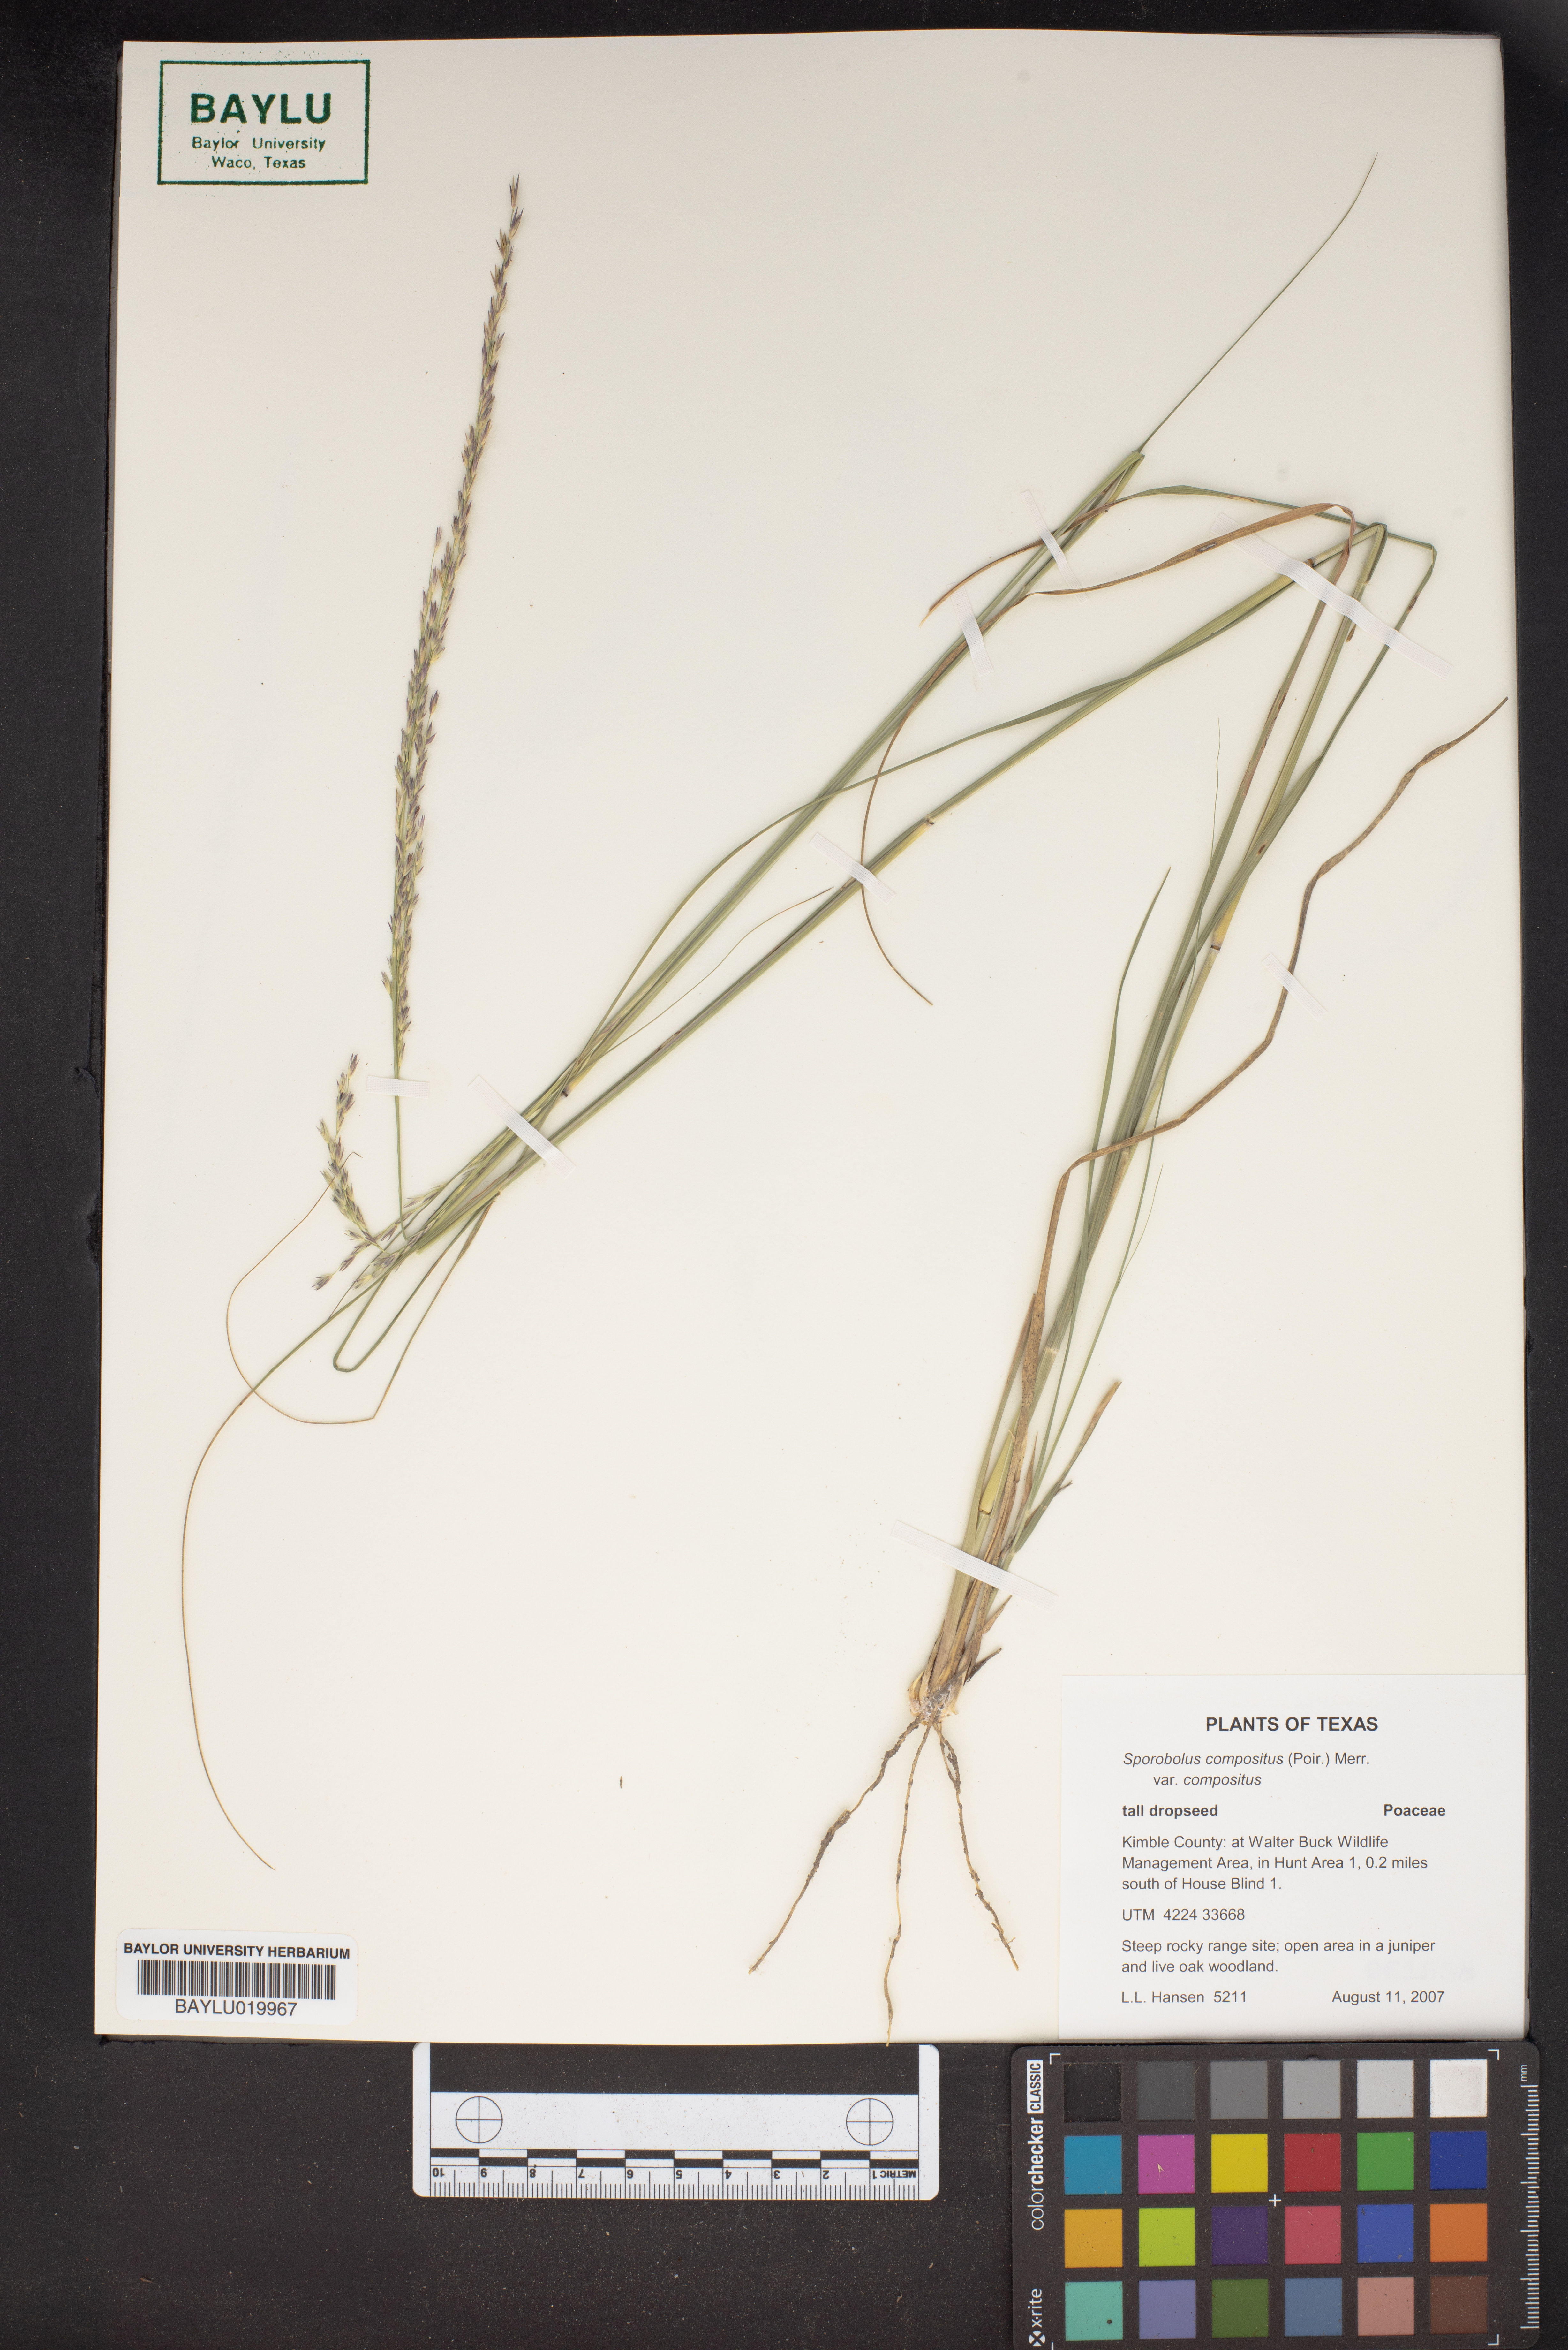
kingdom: Plantae
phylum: Tracheophyta
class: Liliopsida
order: Poales
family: Poaceae
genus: Sporobolus
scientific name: Sporobolus compositus
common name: Rough dropseed
